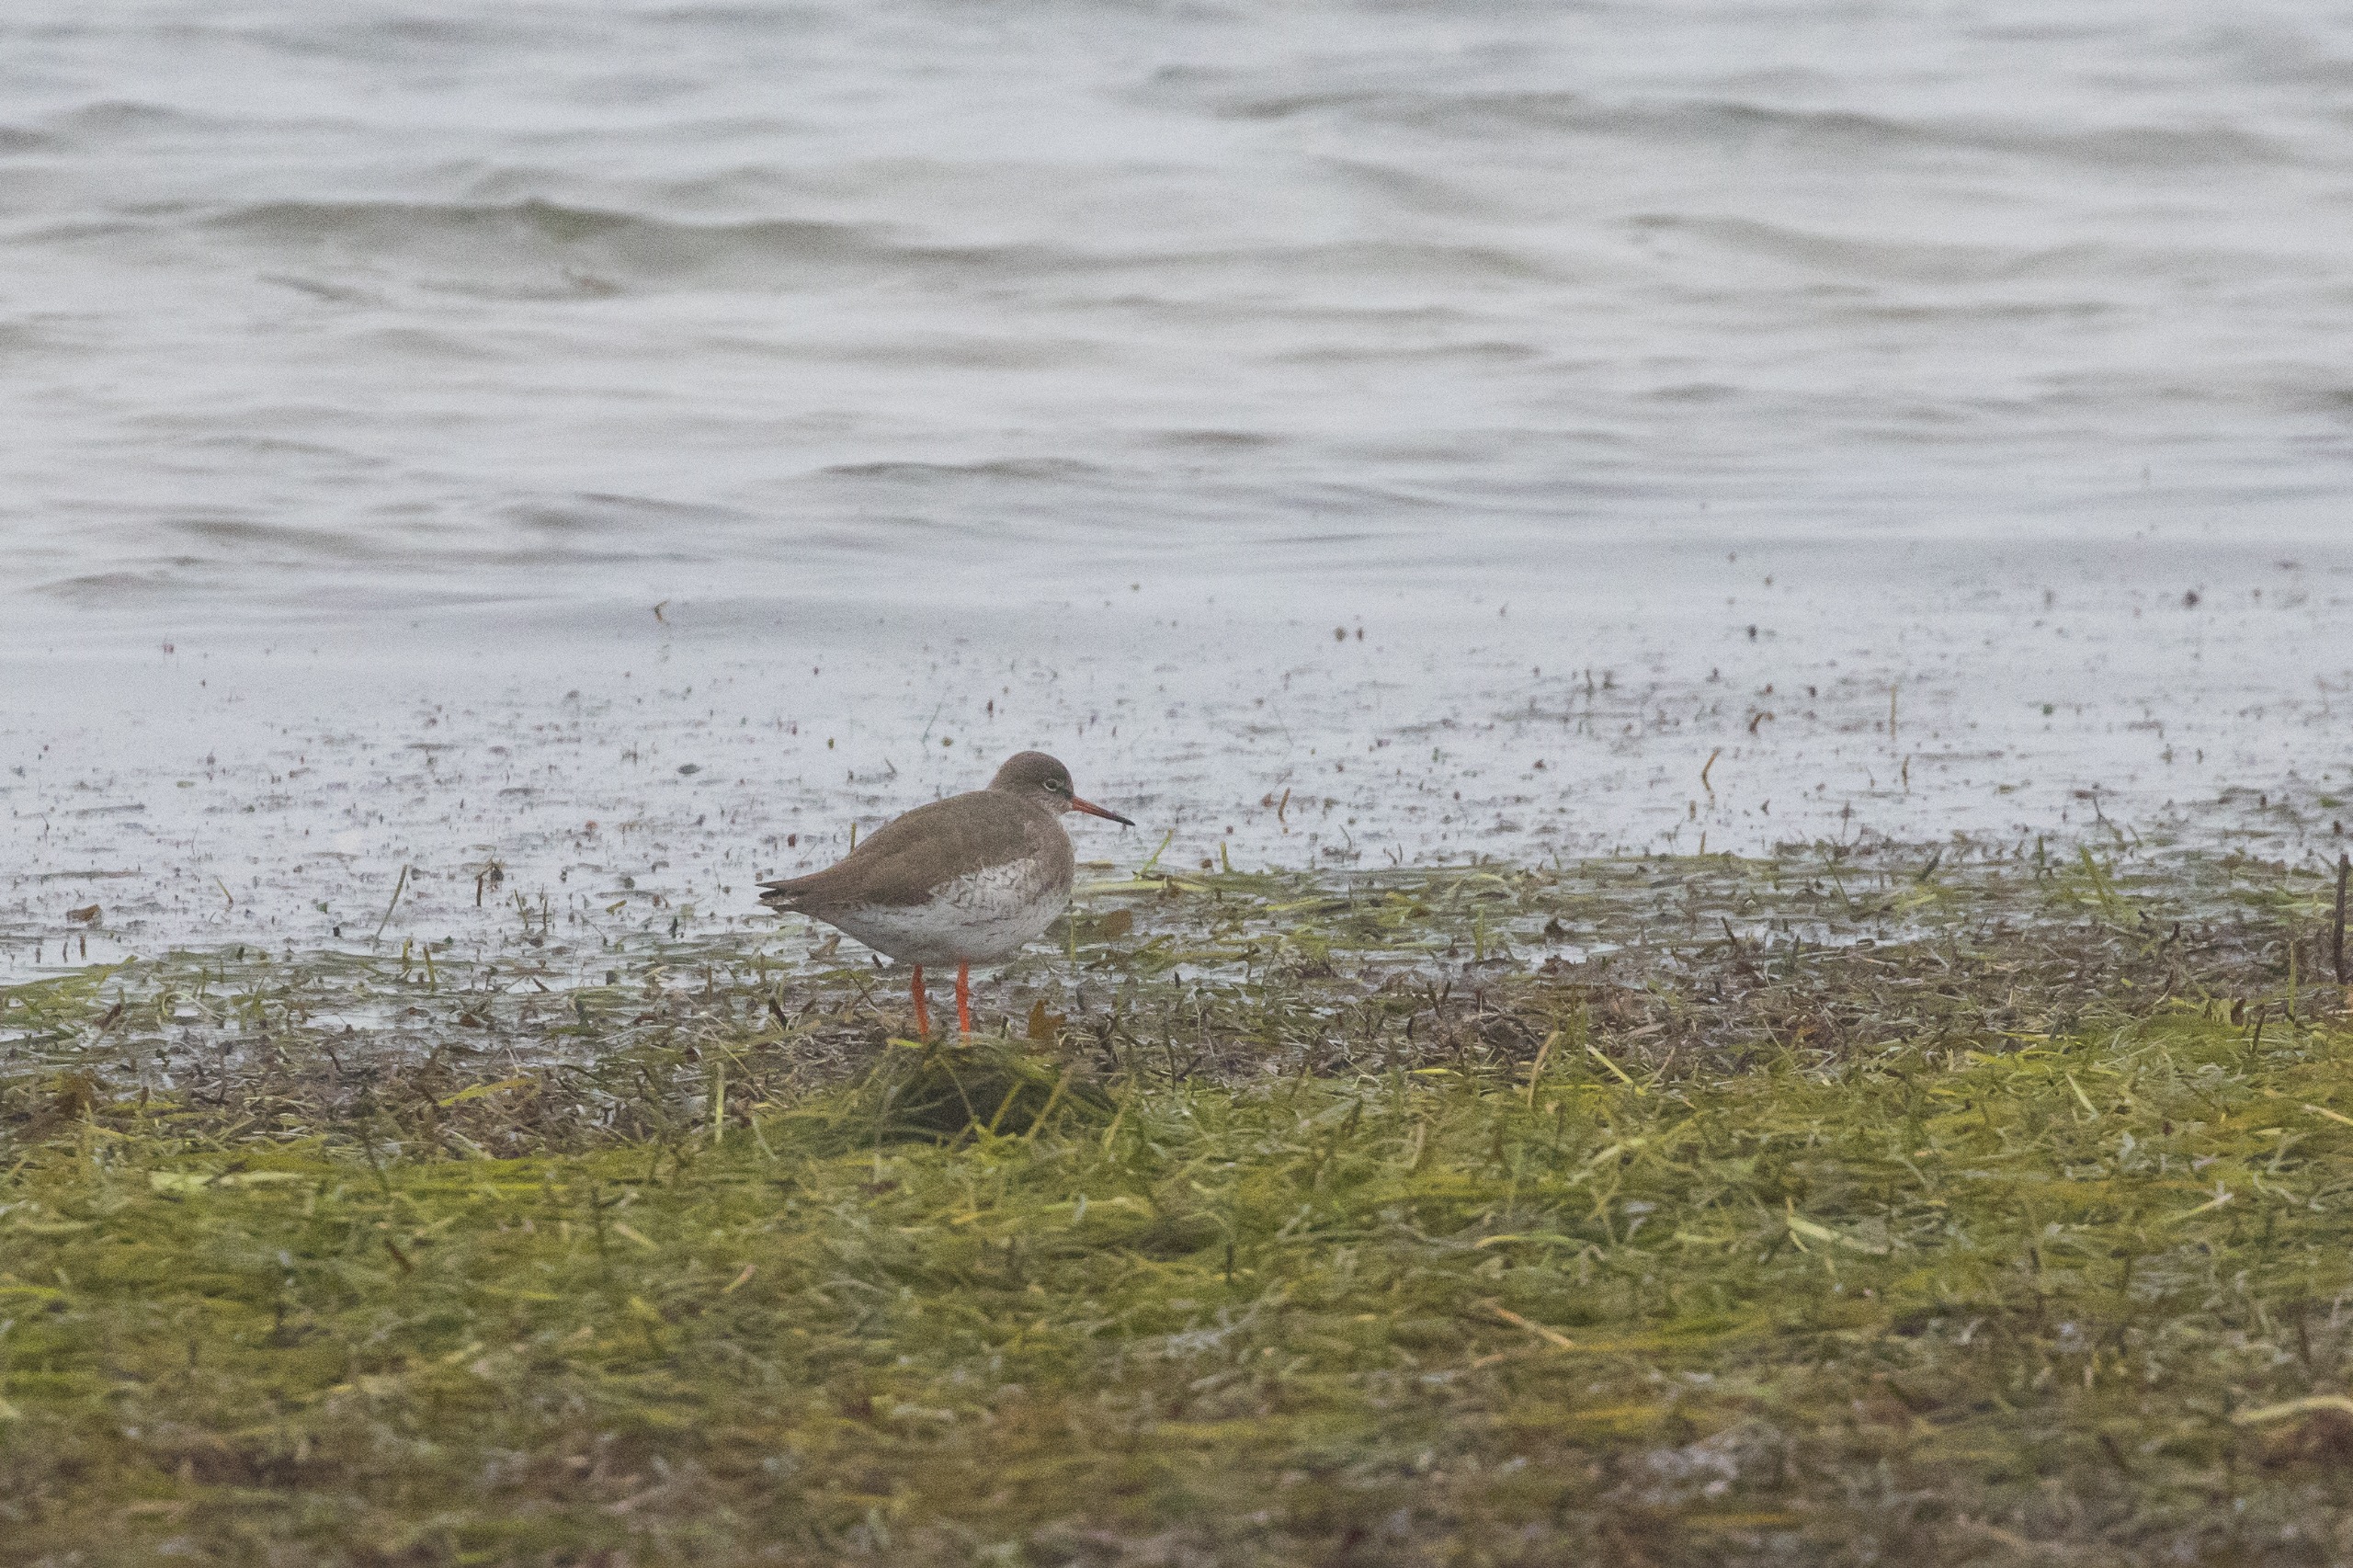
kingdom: Animalia
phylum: Chordata
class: Aves
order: Charadriiformes
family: Scolopacidae
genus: Tringa
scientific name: Tringa totanus
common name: Islandsk rødben
